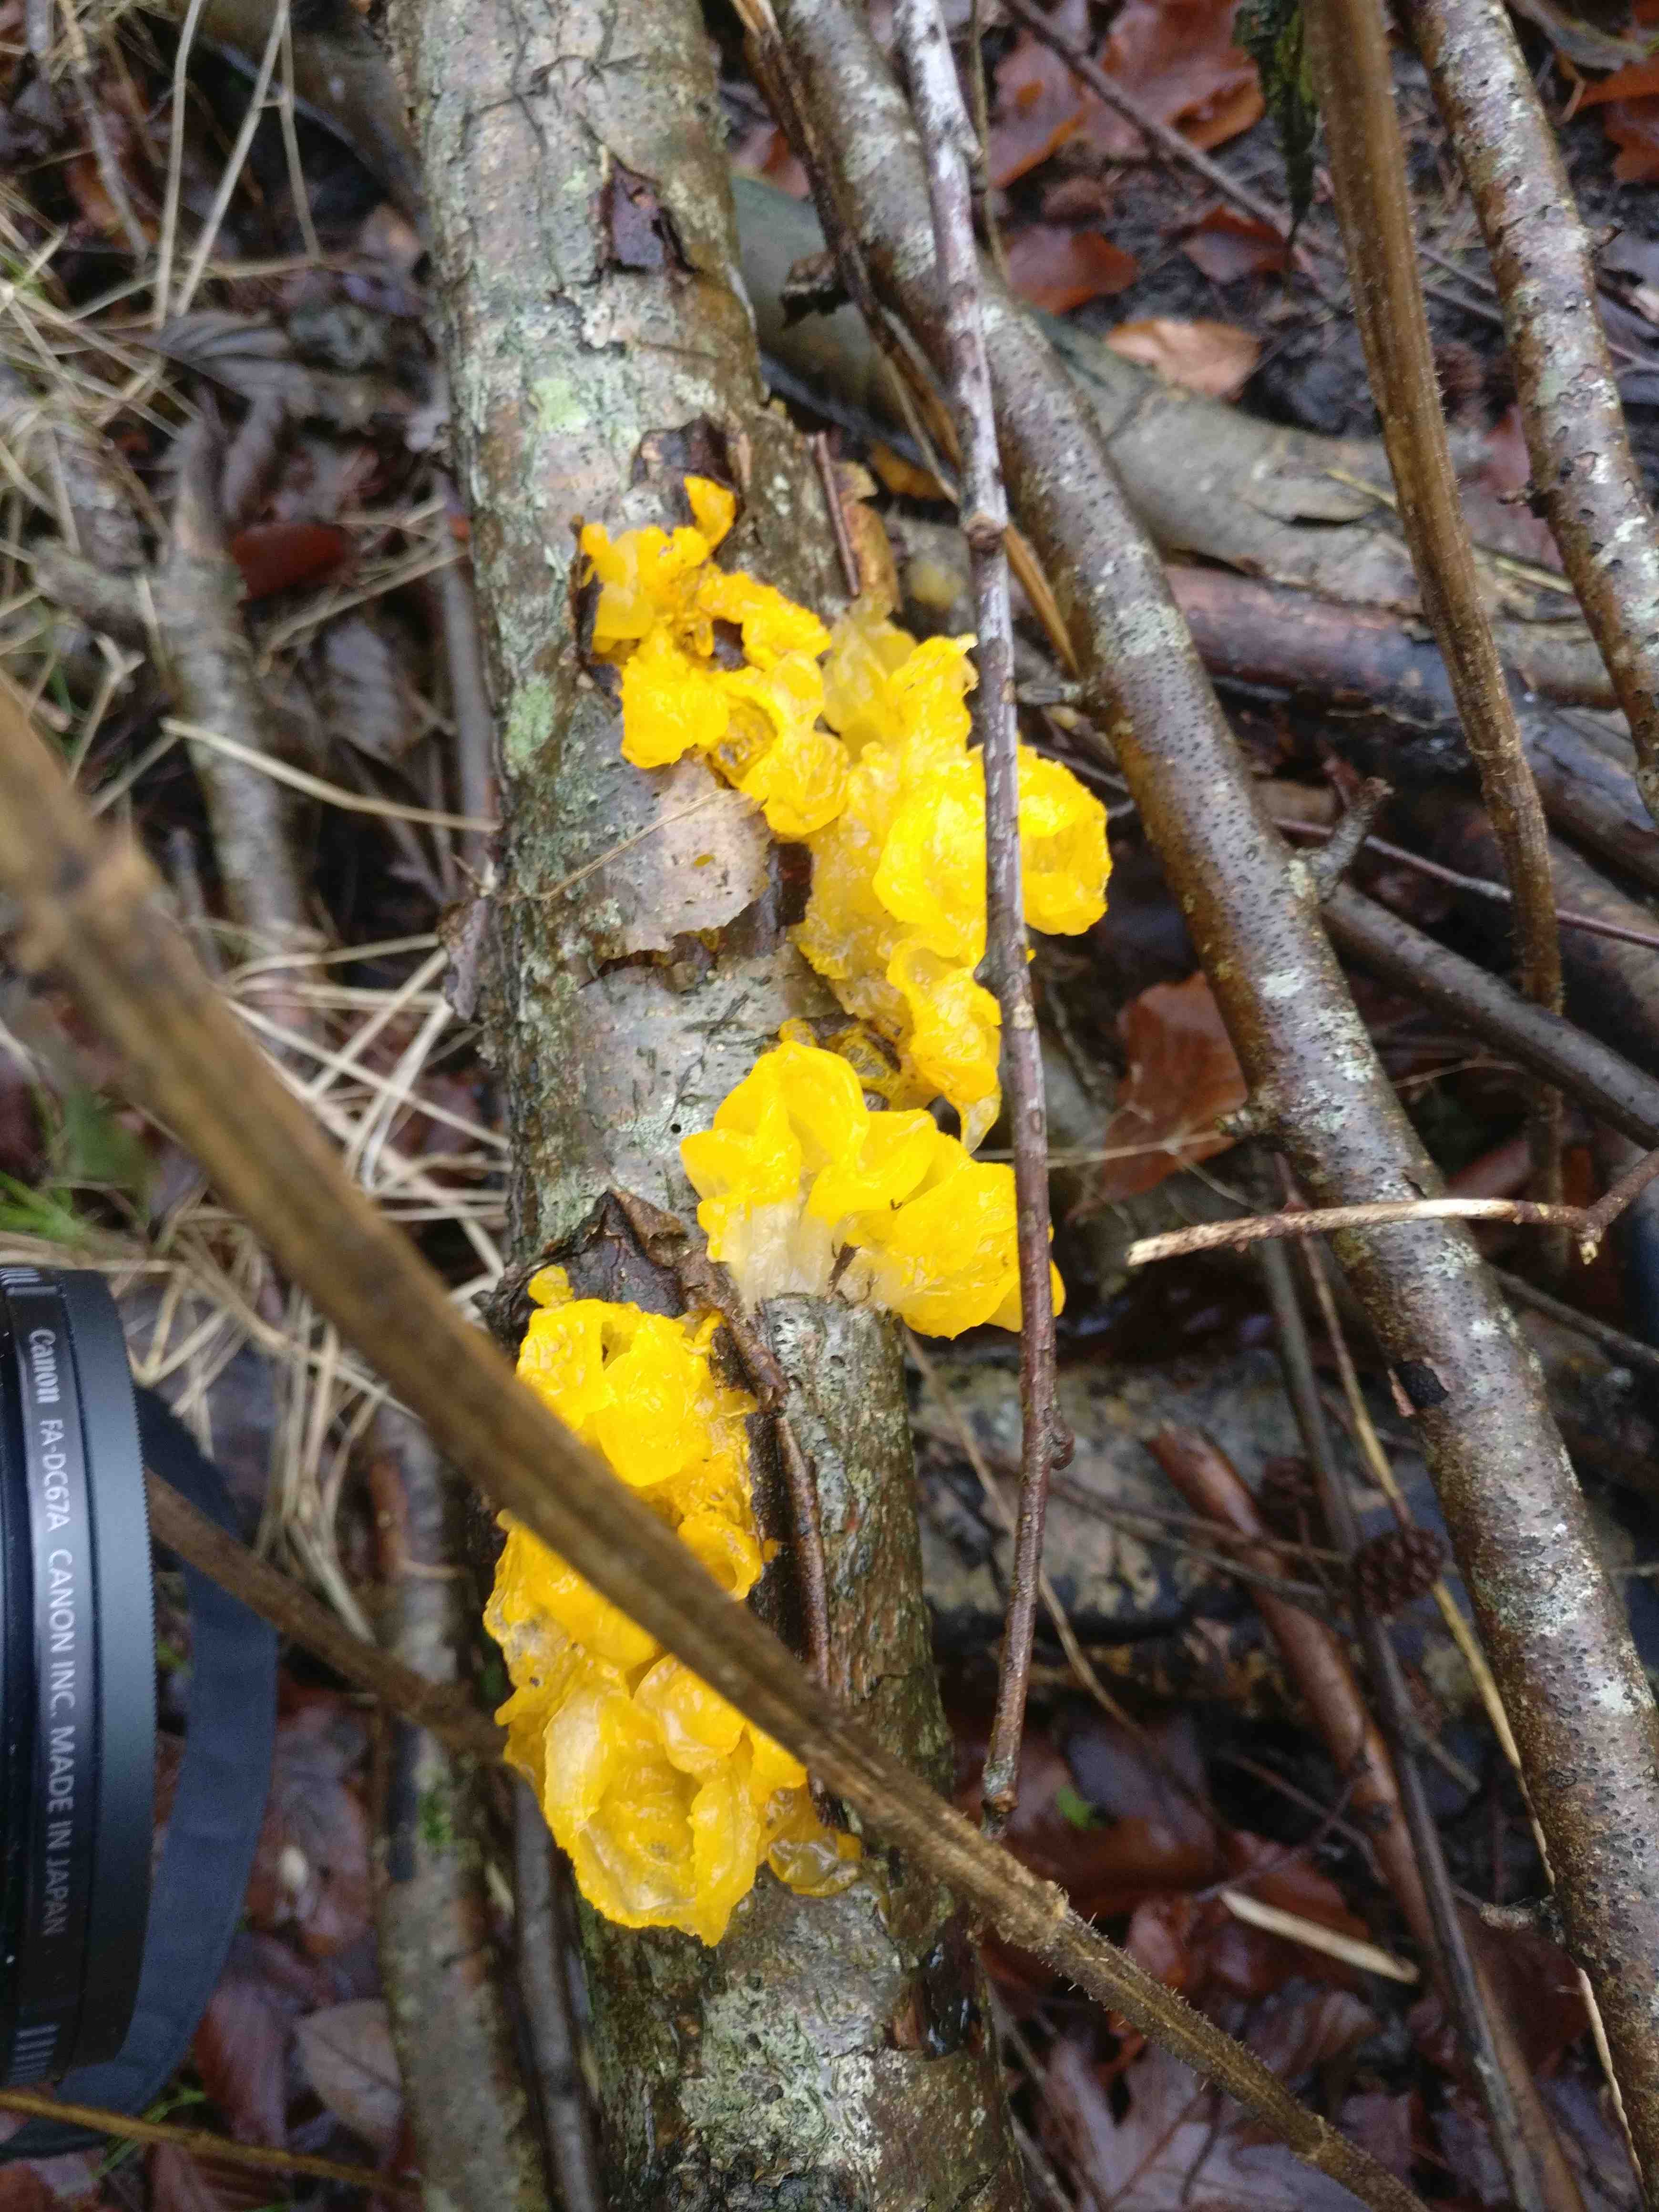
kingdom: Fungi
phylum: Basidiomycota
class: Tremellomycetes
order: Tremellales
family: Tremellaceae
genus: Tremella
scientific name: Tremella mesenterica
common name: gul bævresvamp
